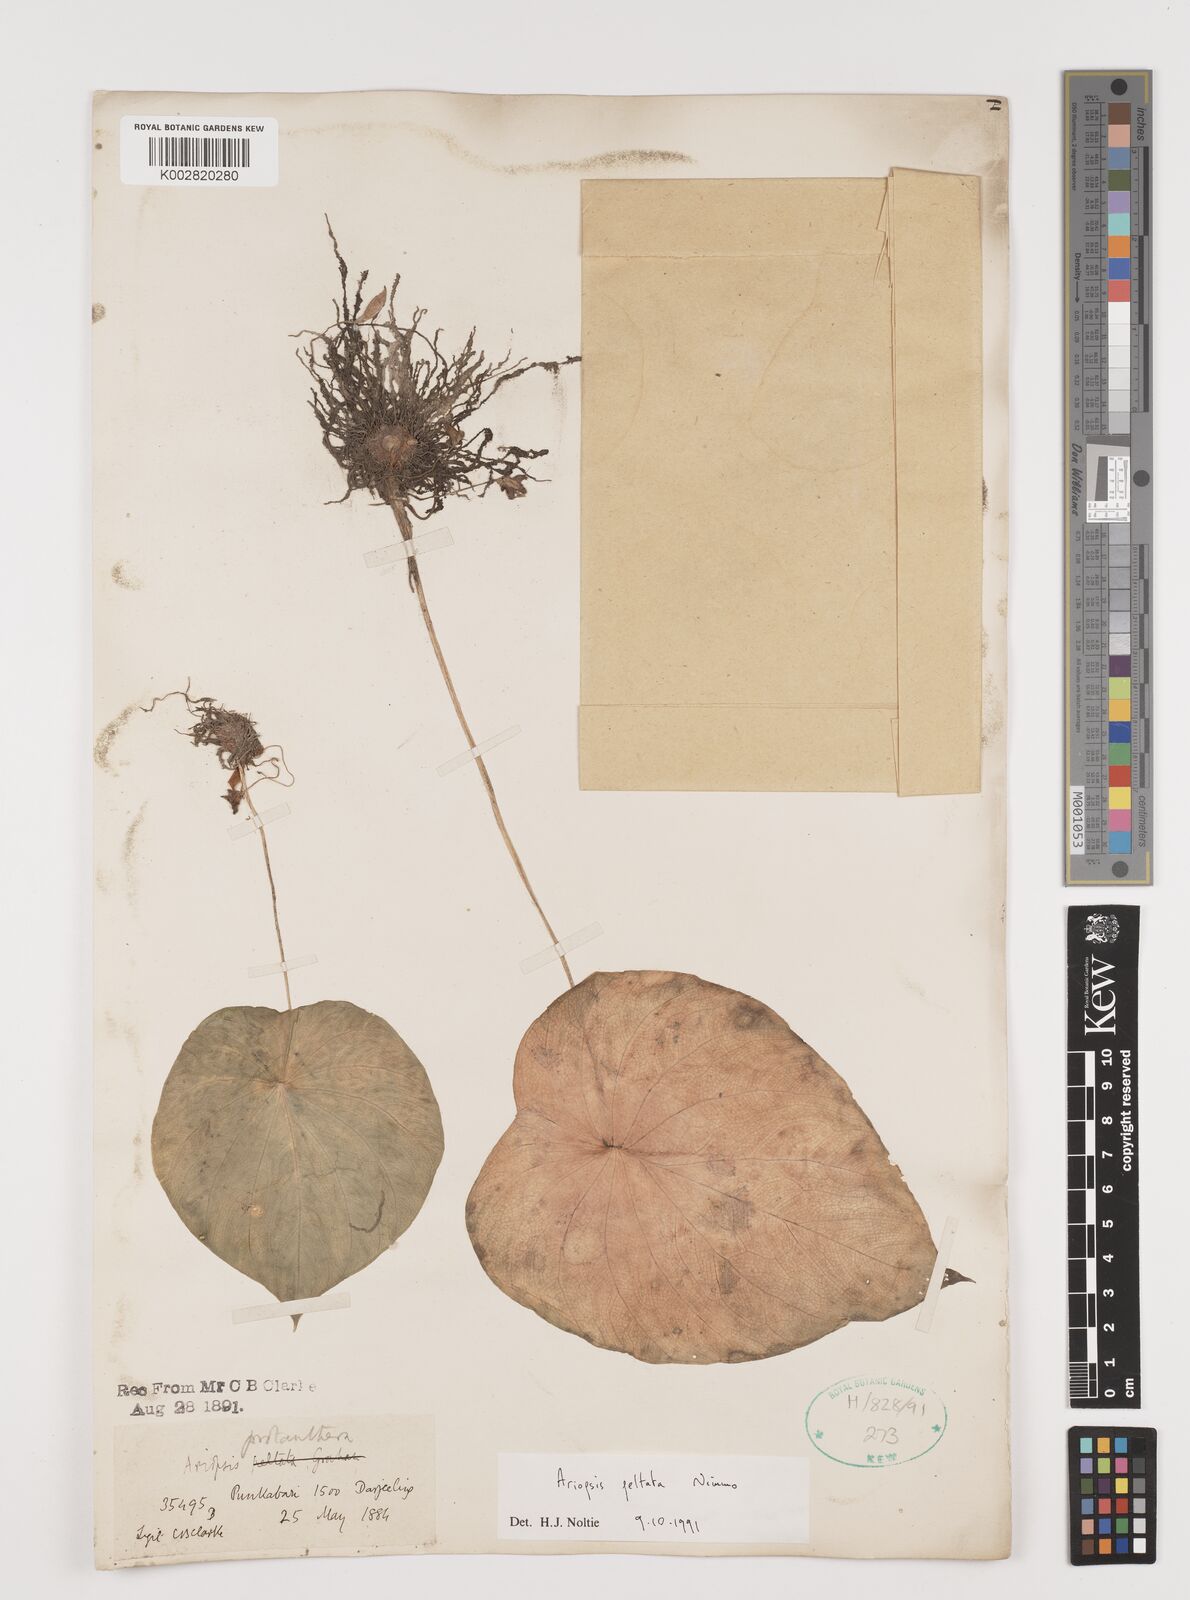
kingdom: Plantae
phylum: Tracheophyta
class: Liliopsida
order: Alismatales
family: Araceae
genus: Ariopsis
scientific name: Ariopsis peltata
